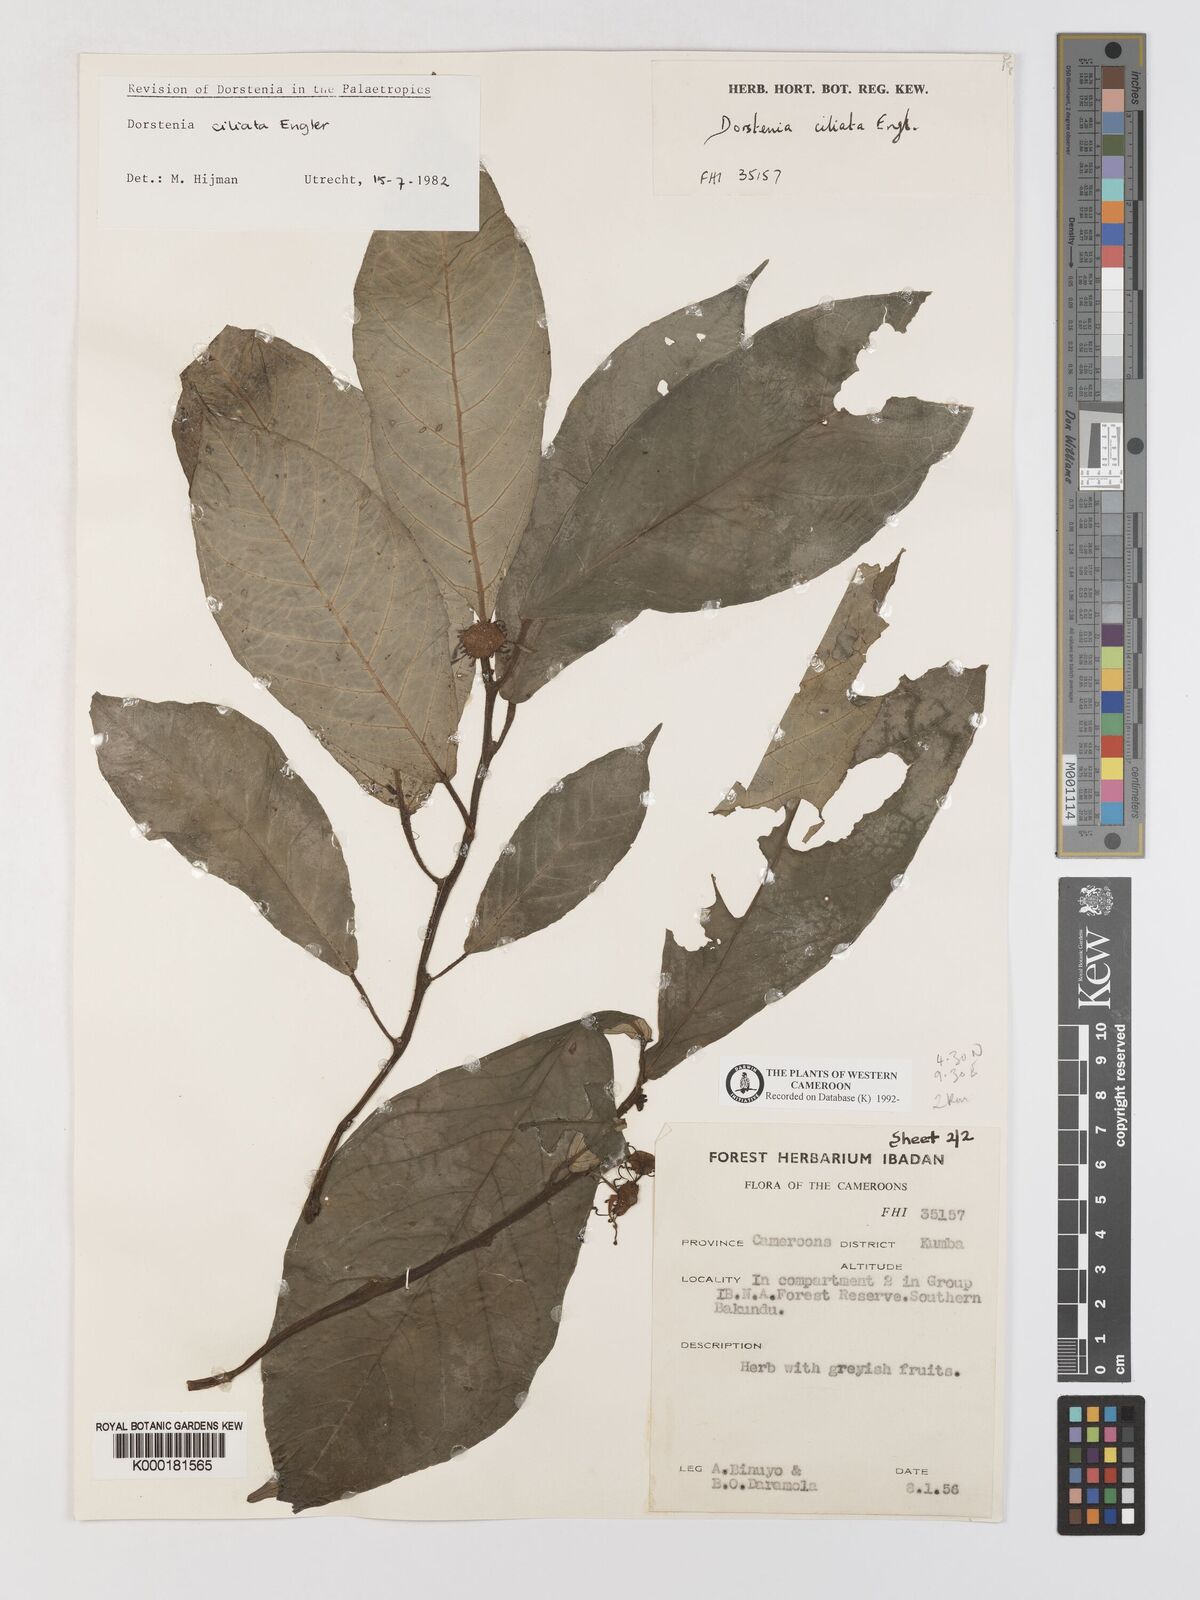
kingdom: Plantae
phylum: Tracheophyta
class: Magnoliopsida
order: Rosales
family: Moraceae
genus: Dorstenia
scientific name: Dorstenia ciliata
